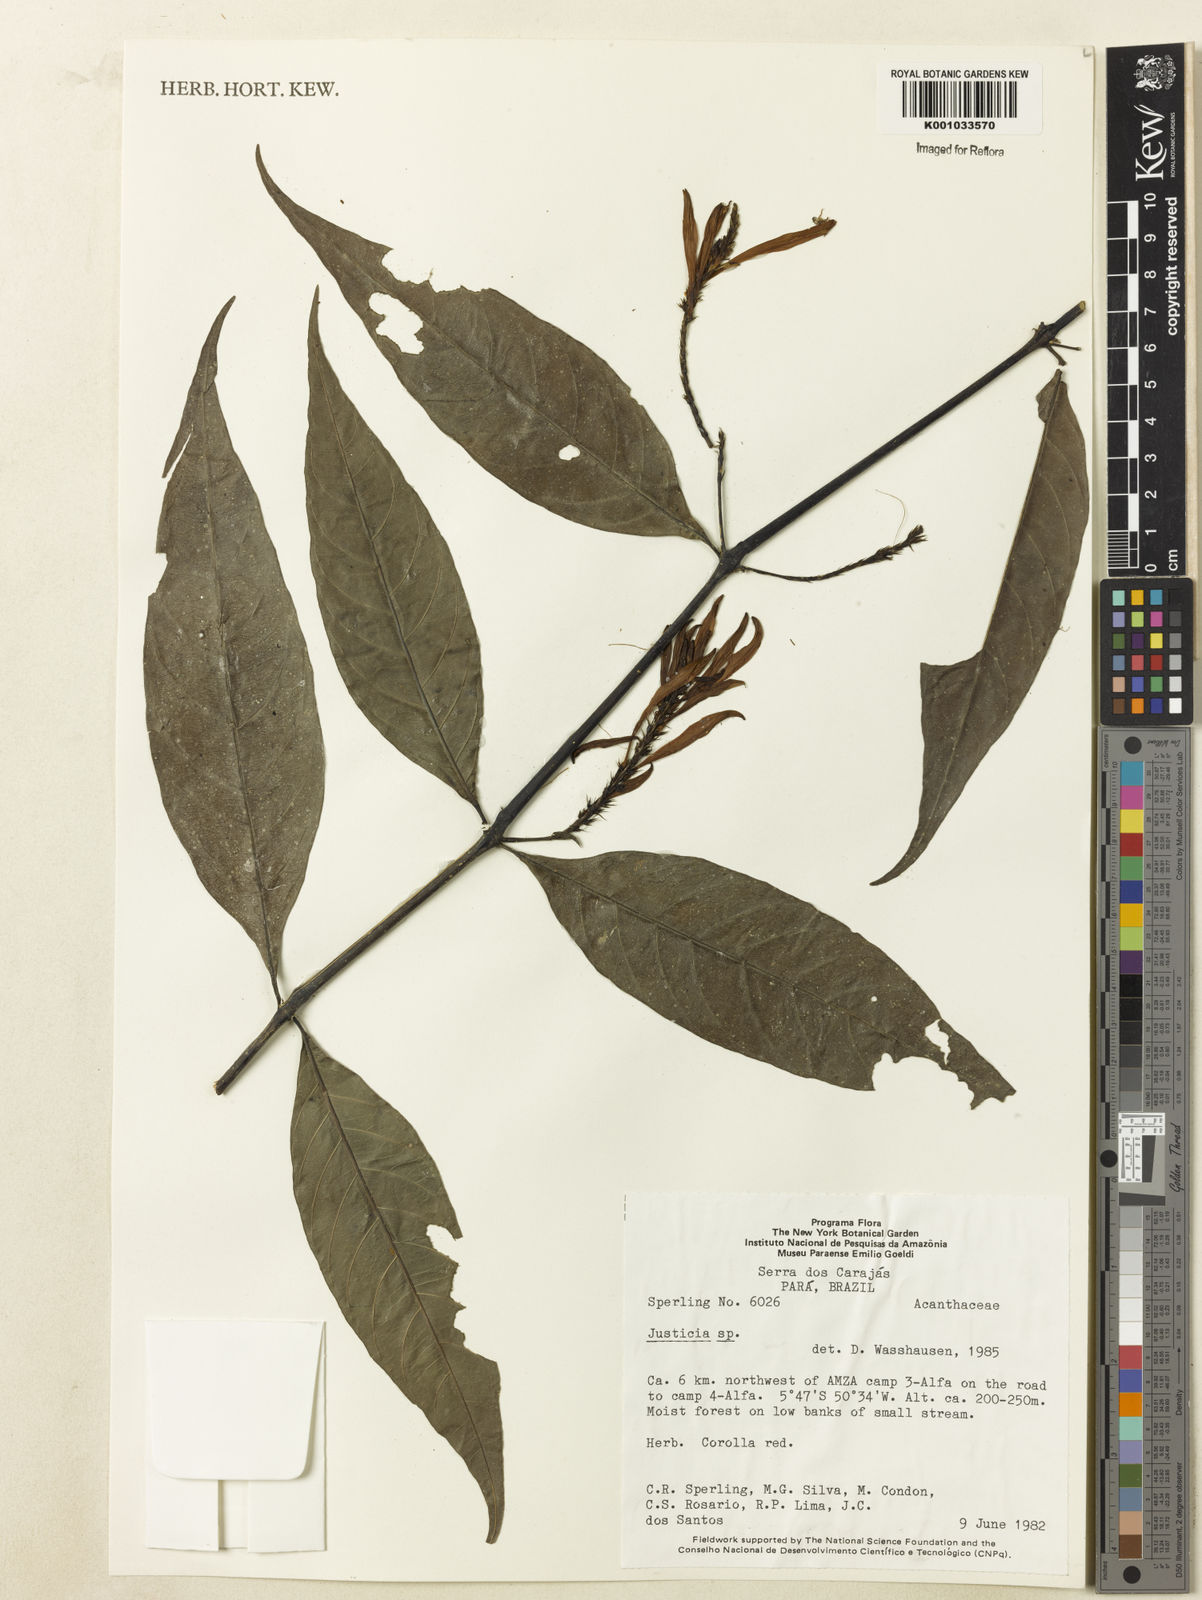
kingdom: Plantae
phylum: Tracheophyta
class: Magnoliopsida
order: Lamiales
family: Acanthaceae
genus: Justicia
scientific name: Justicia
